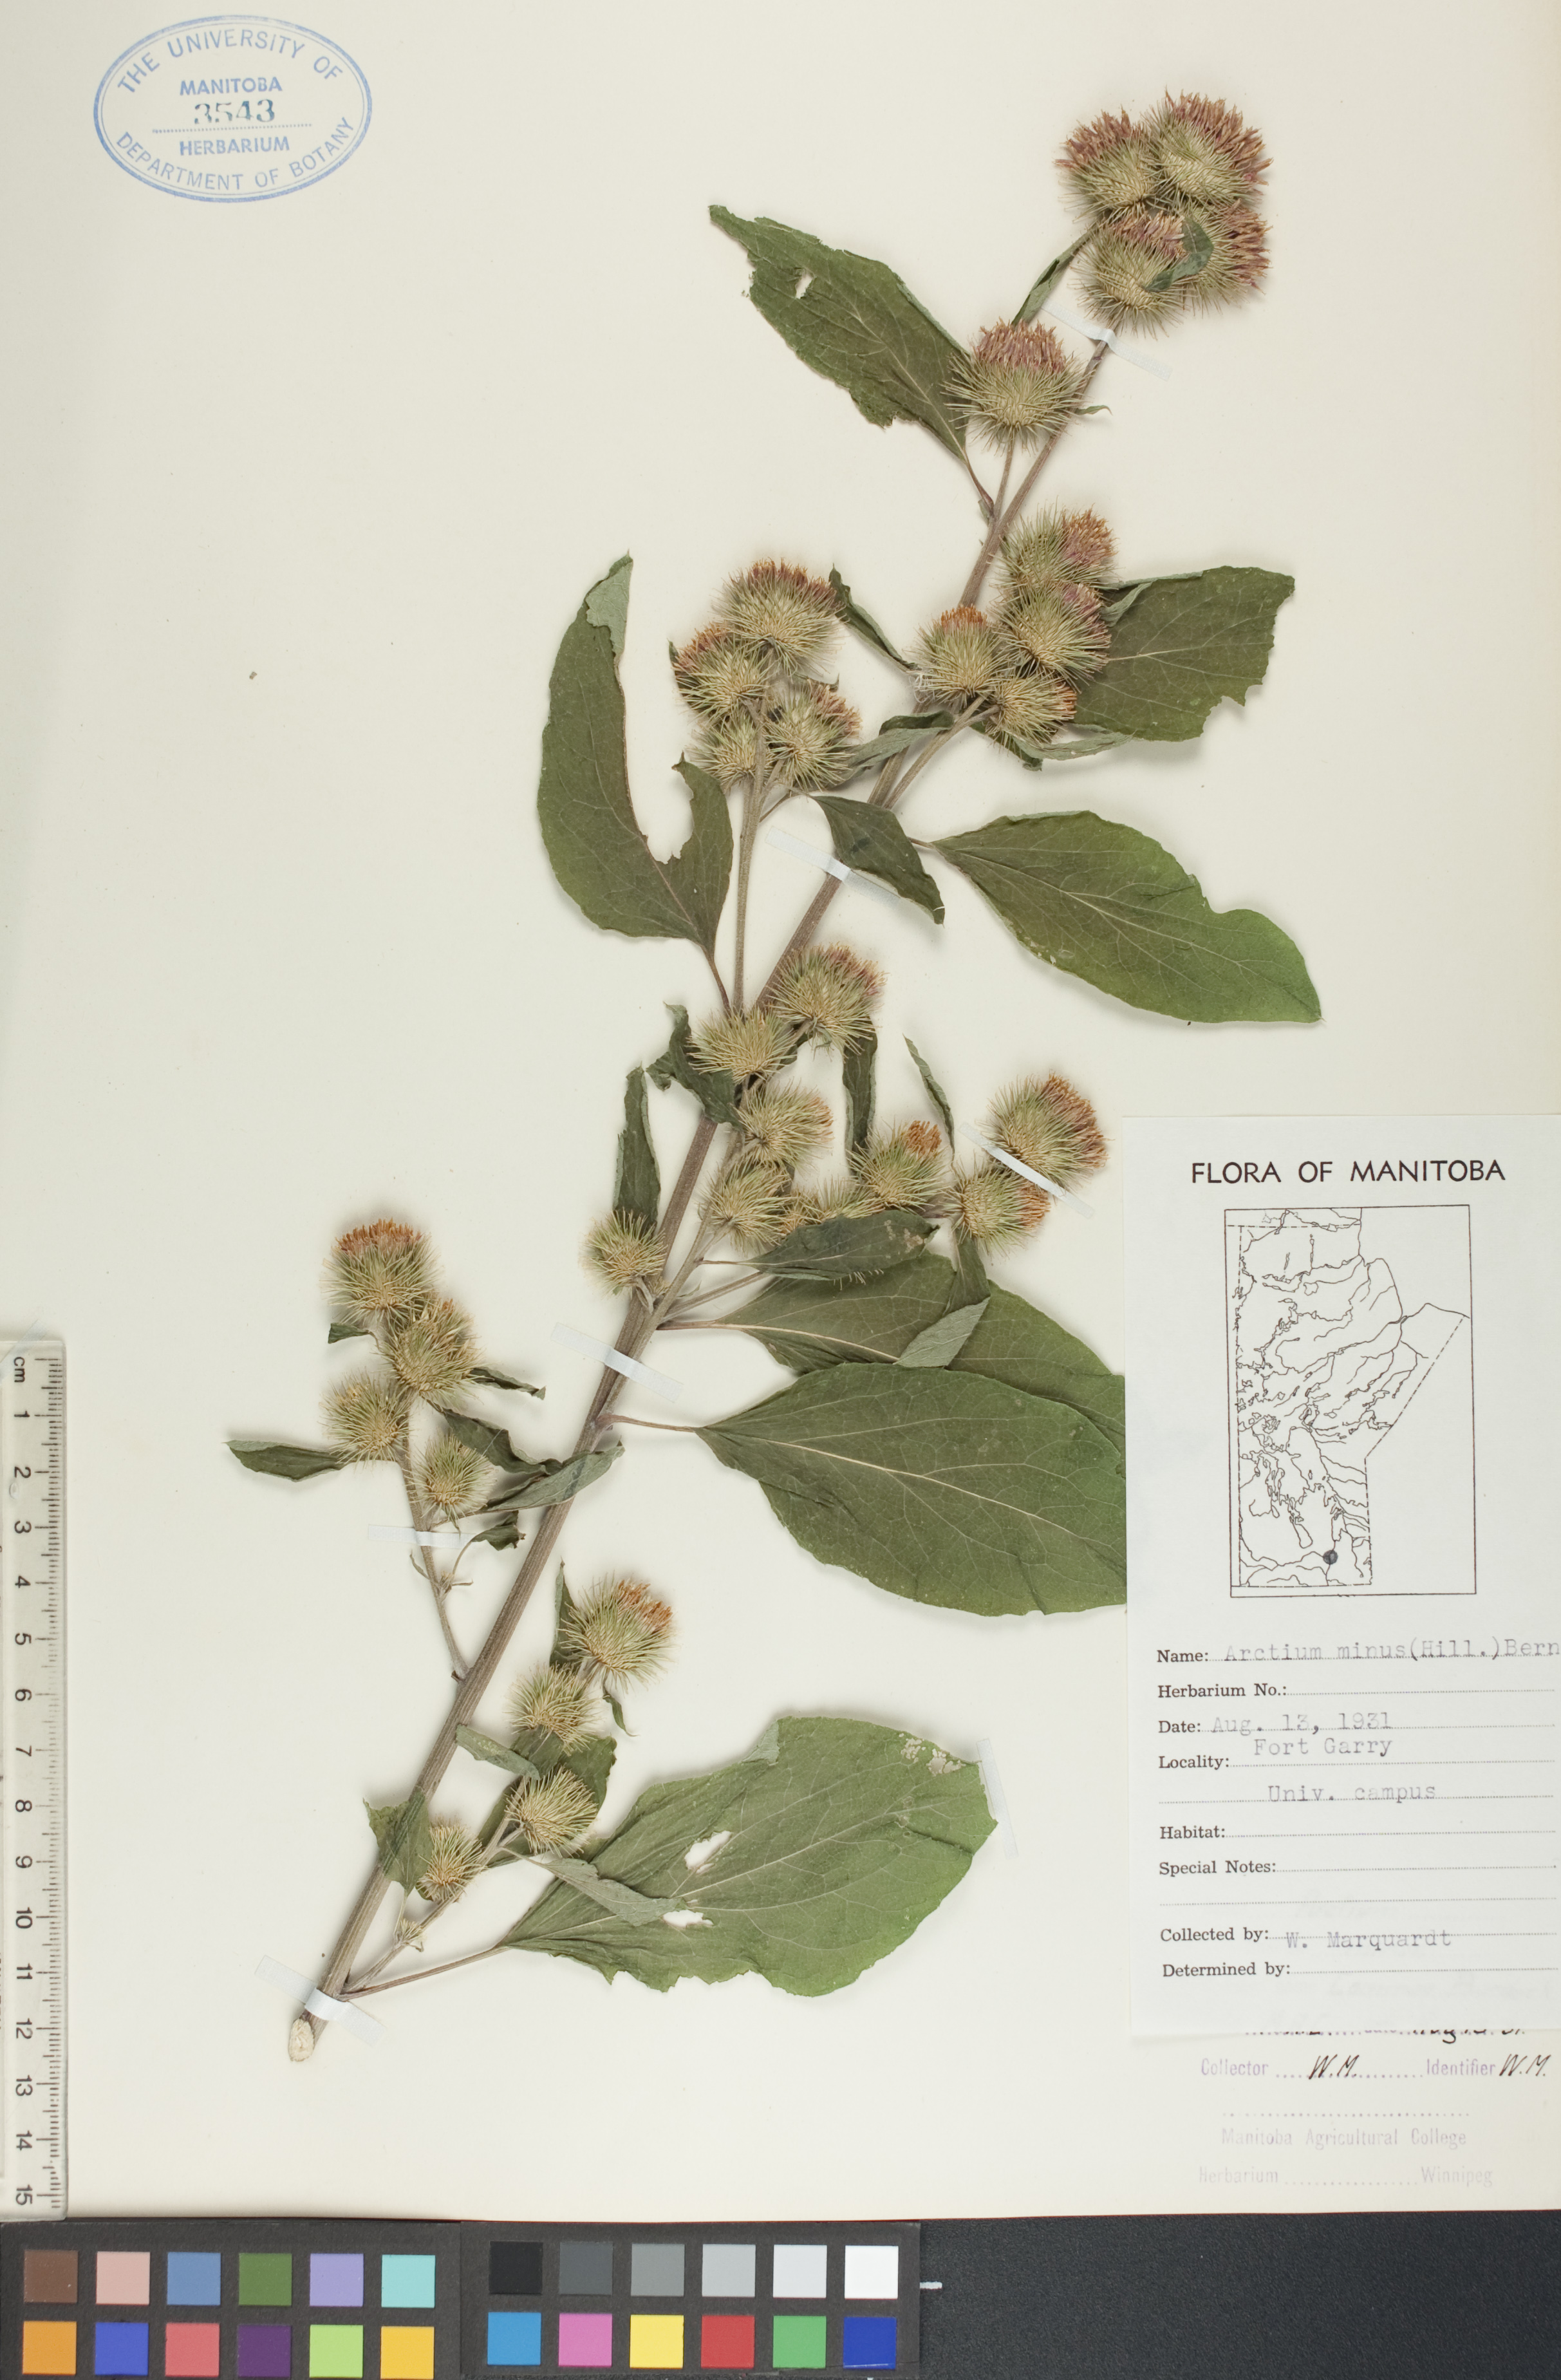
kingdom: Plantae
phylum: Tracheophyta
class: Magnoliopsida
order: Asterales
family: Asteraceae
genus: Arctium
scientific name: Arctium minus
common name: Lesser burdock
